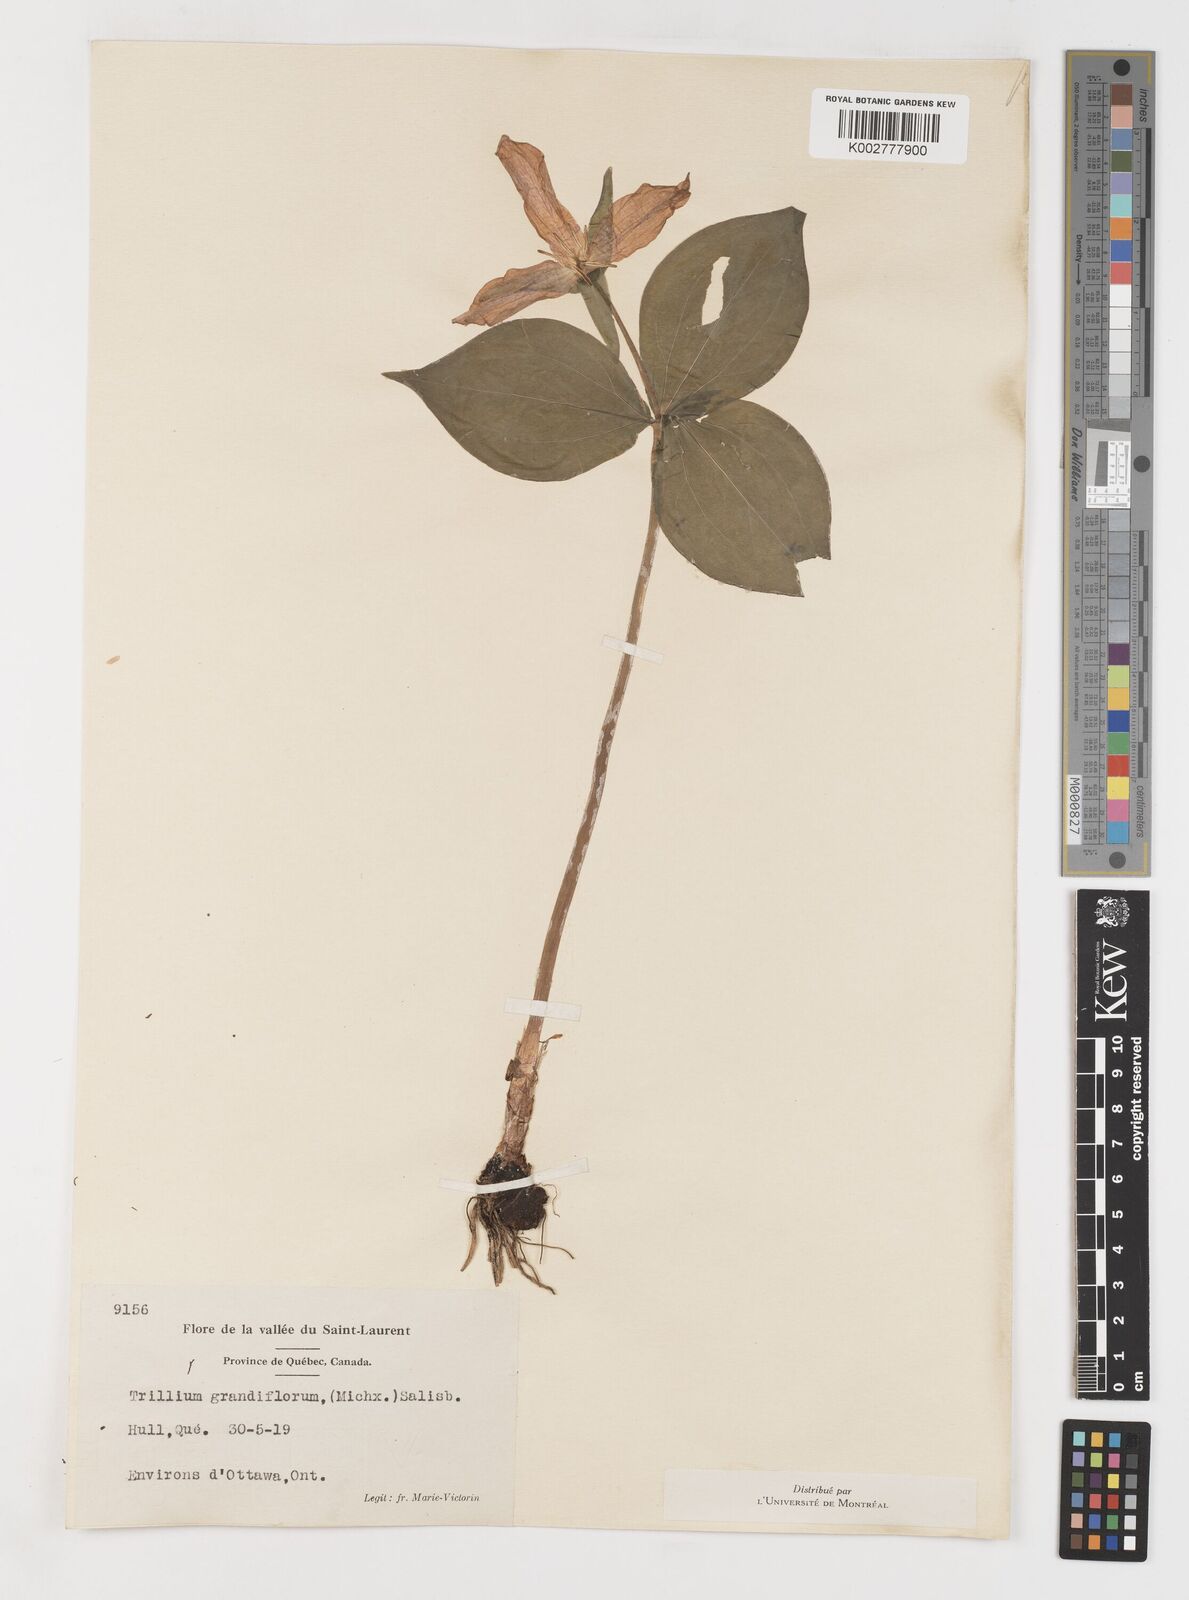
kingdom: Plantae
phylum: Tracheophyta
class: Liliopsida
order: Liliales
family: Melanthiaceae
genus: Trillium
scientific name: Trillium grandiflorum
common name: Great white trillium
